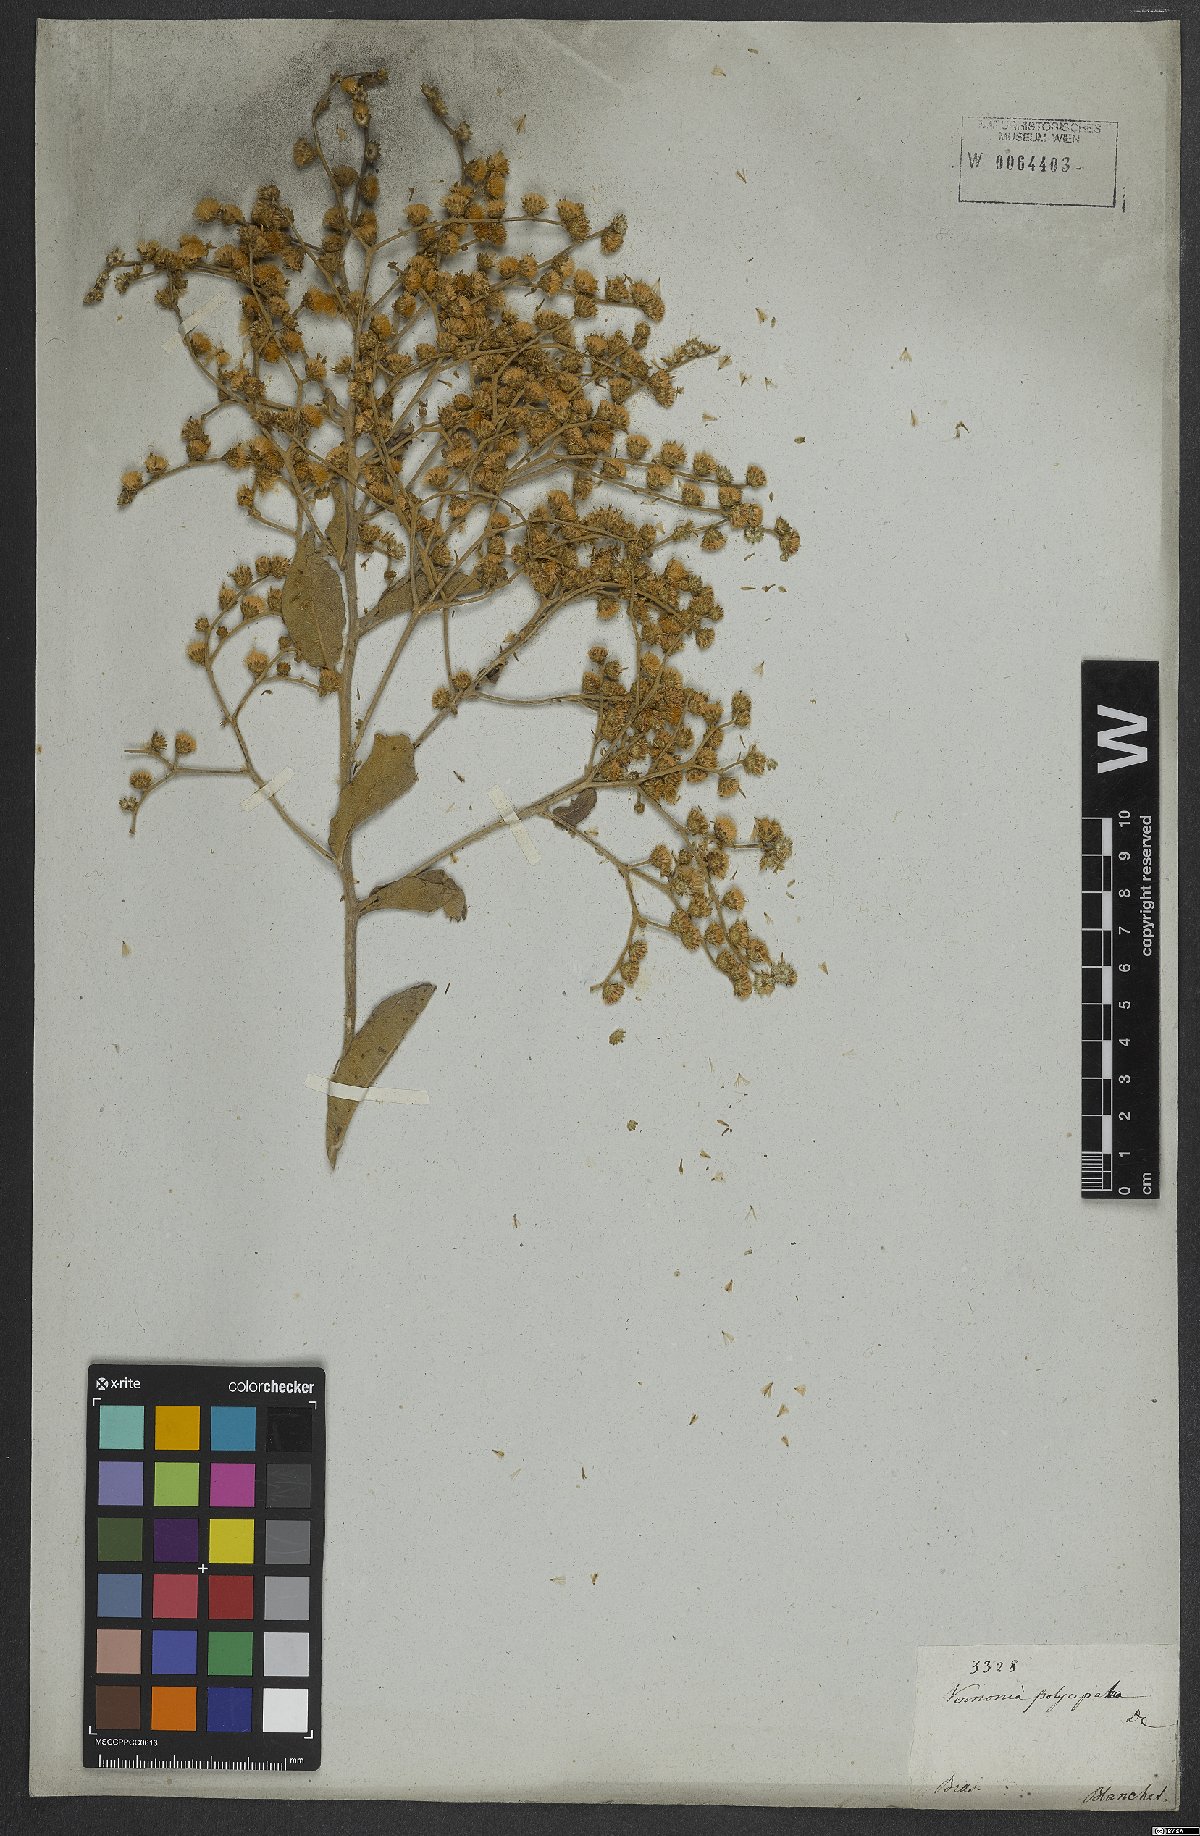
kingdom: Plantae
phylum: Tracheophyta
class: Magnoliopsida
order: Asterales
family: Asteraceae
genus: Vernonanthura
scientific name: Vernonanthura ferruginea
